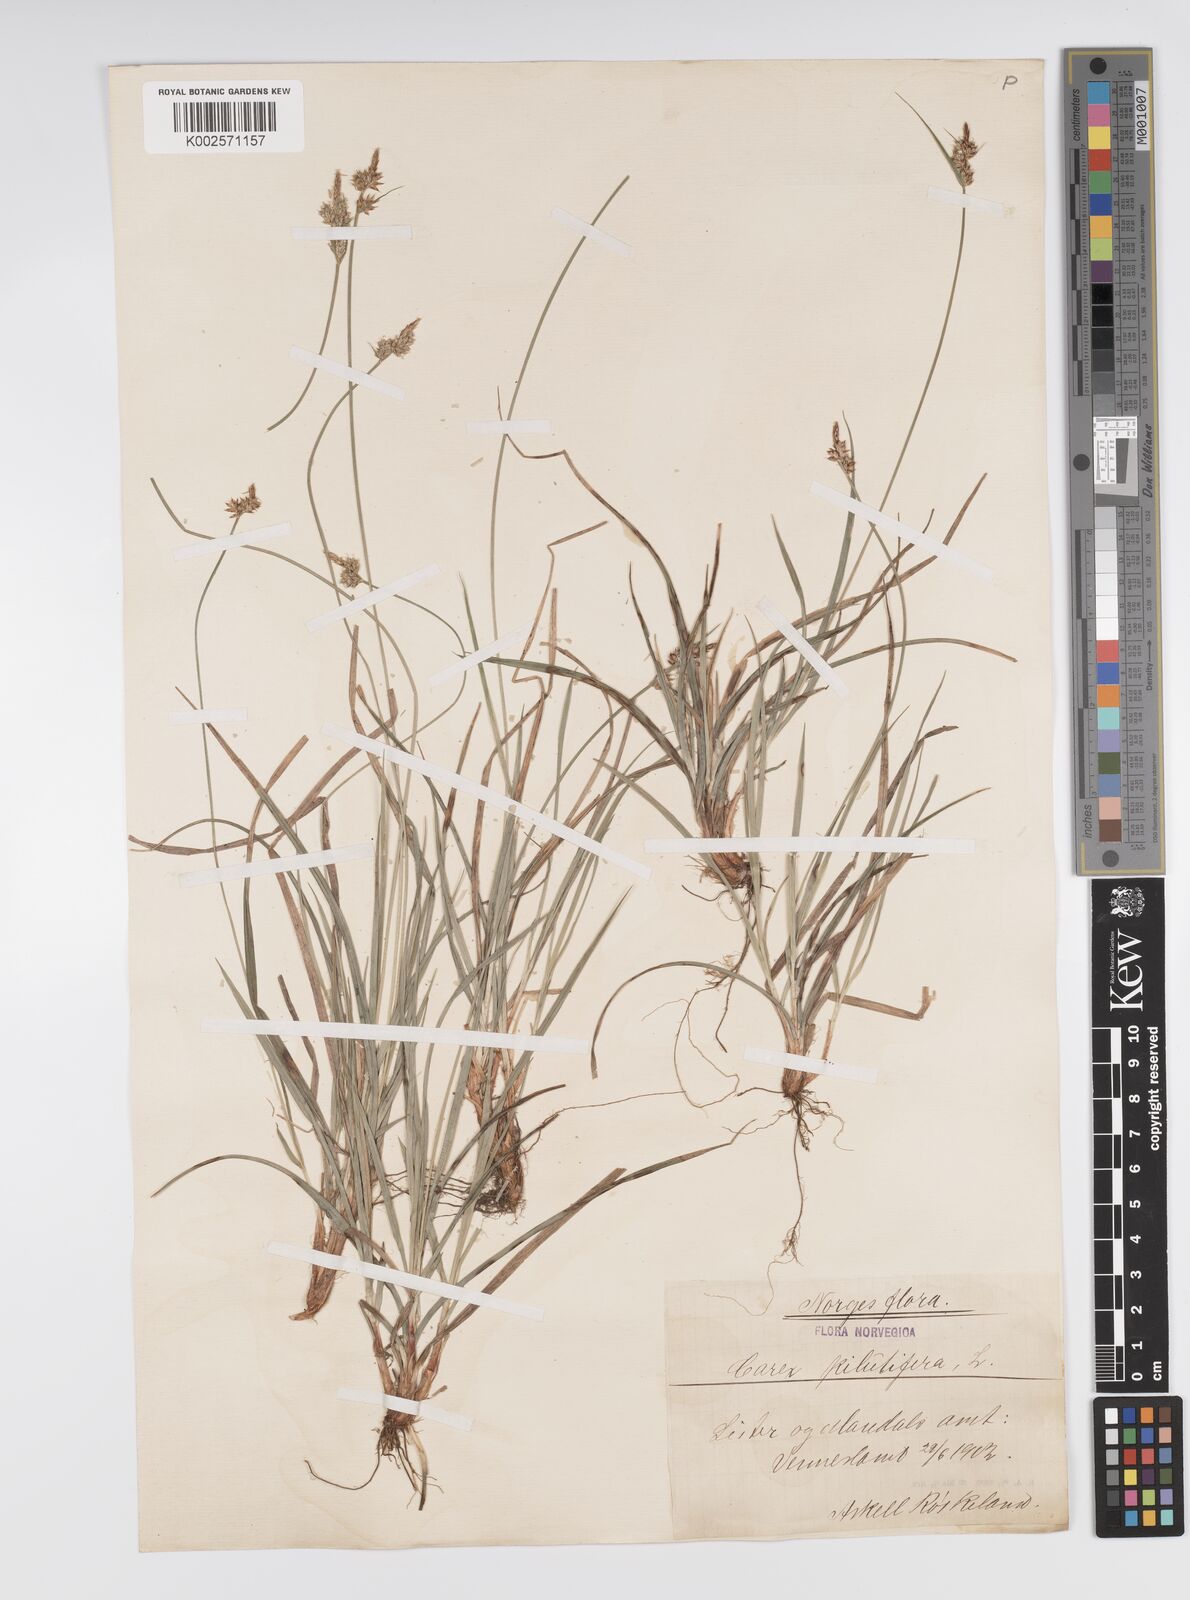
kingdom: Plantae
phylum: Tracheophyta
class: Liliopsida
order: Poales
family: Cyperaceae
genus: Carex
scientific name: Carex pilulifera
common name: Pill sedge
